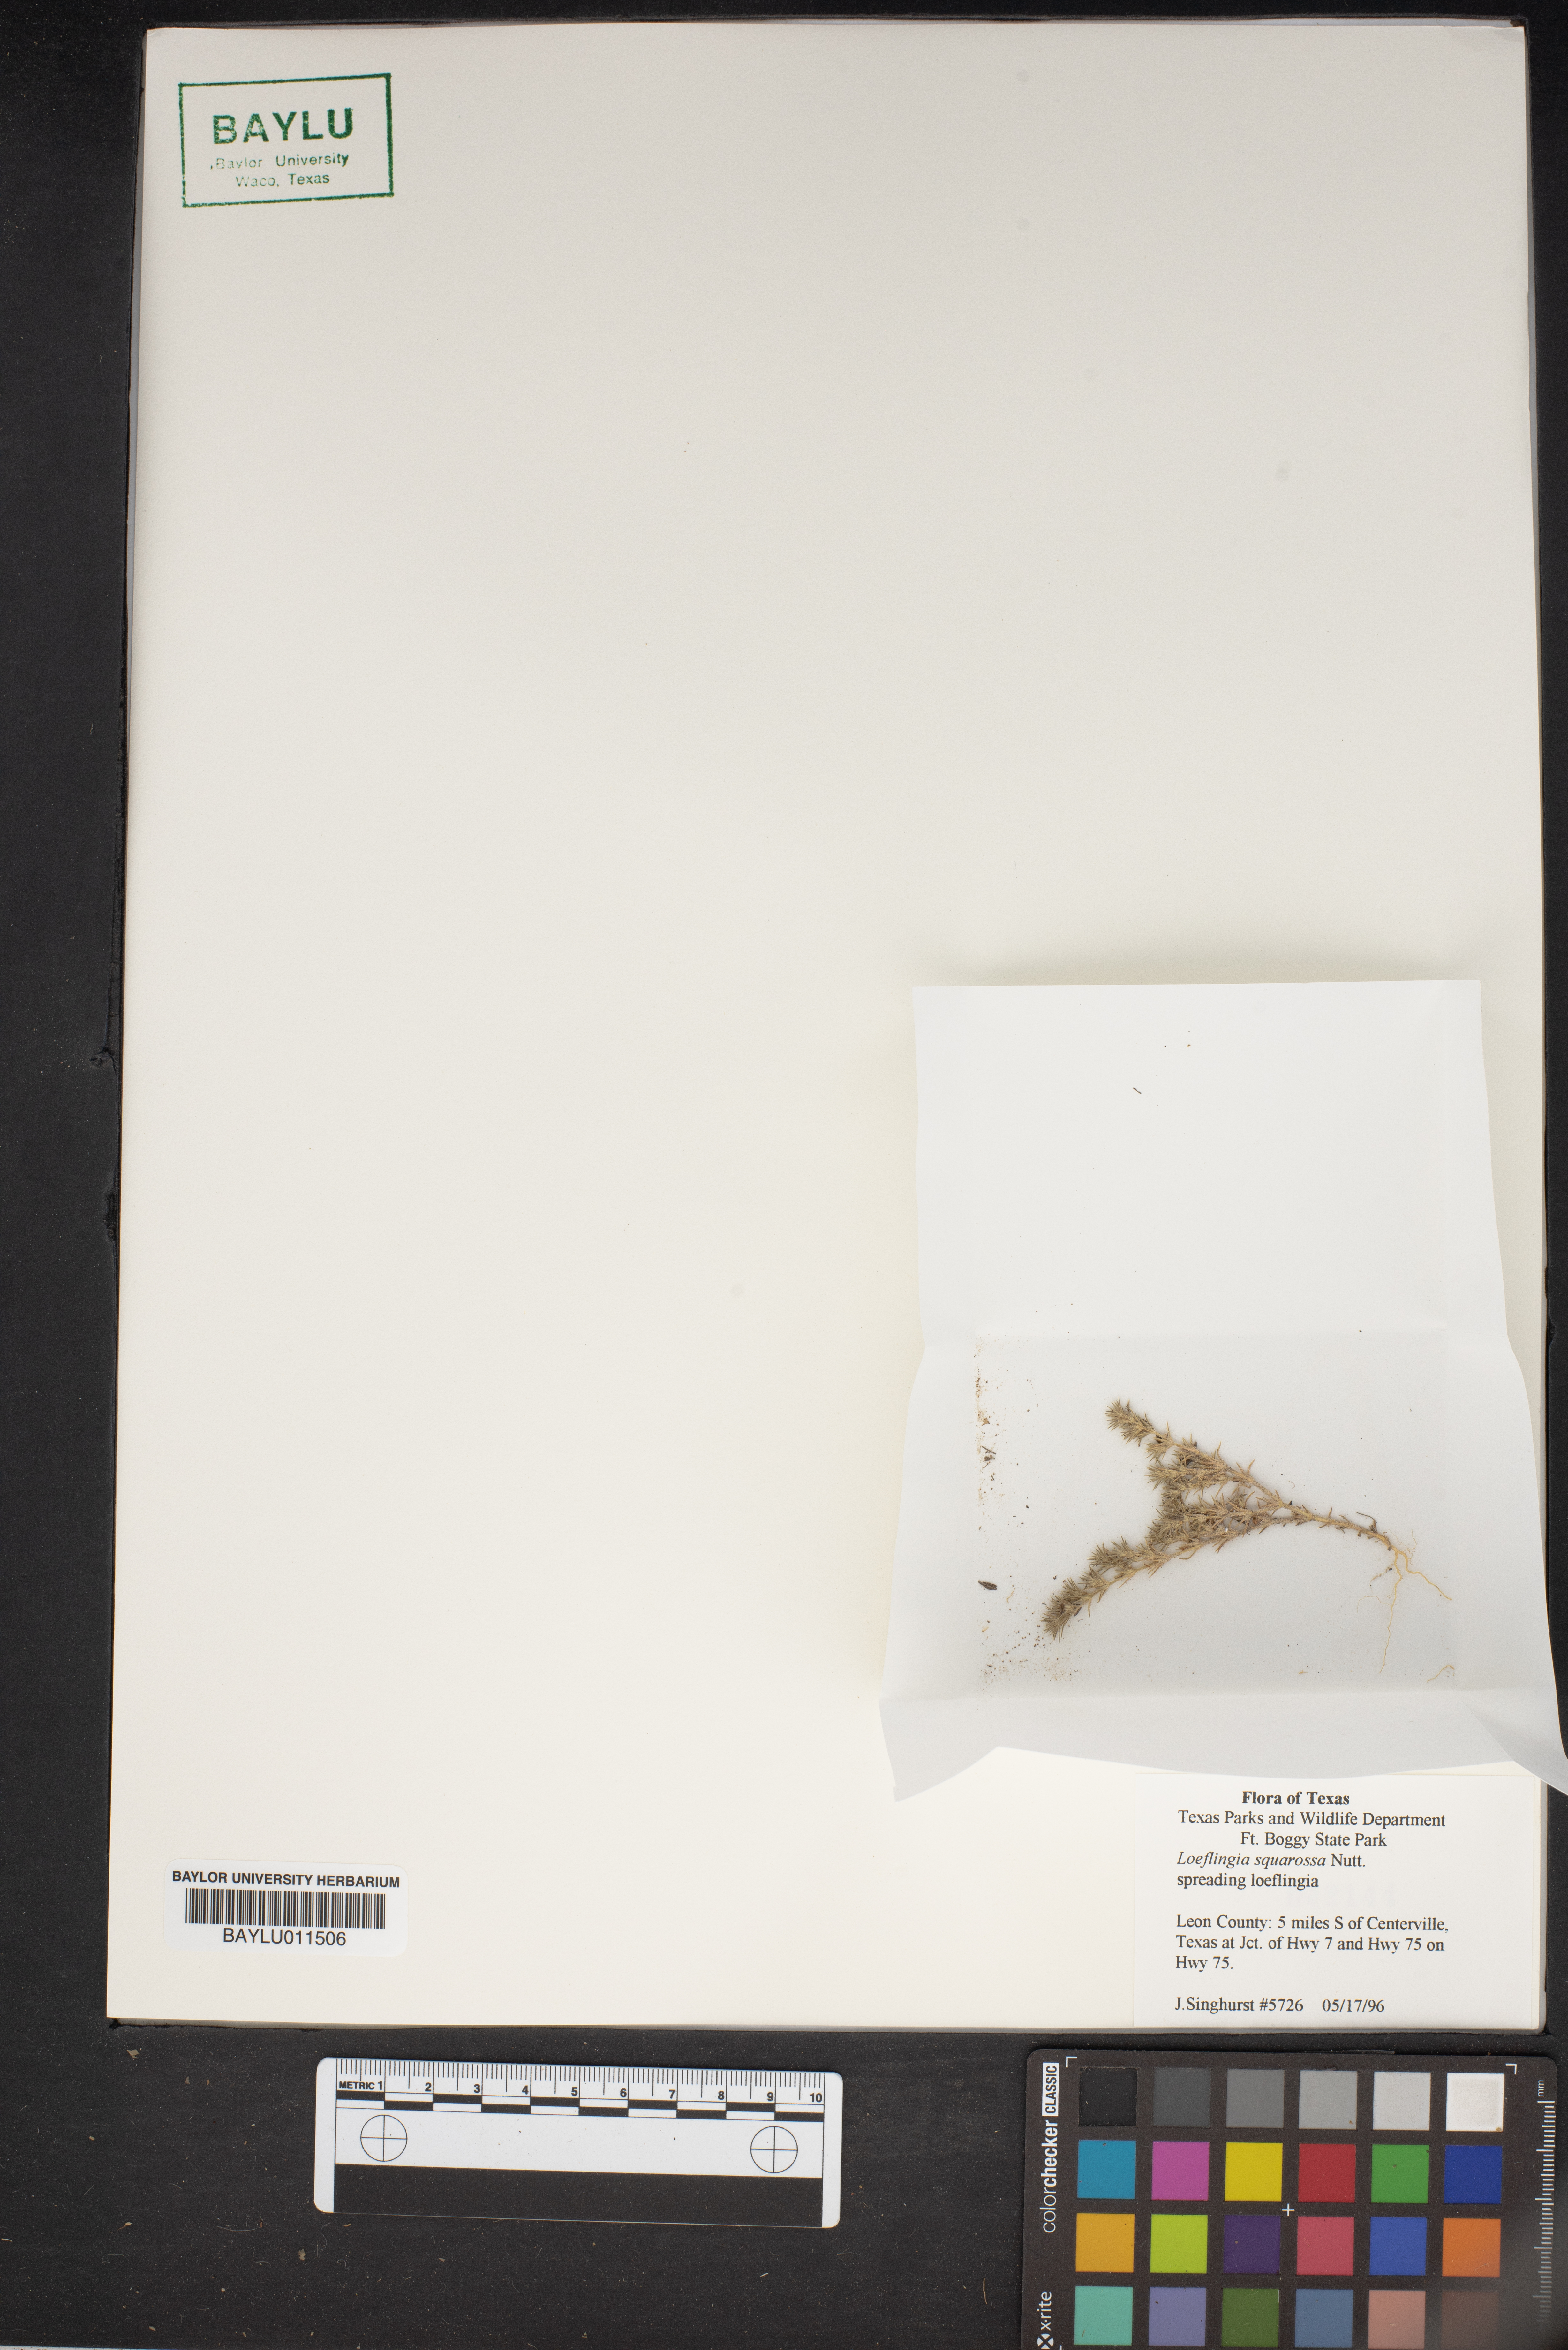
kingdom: Plantae
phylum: Tracheophyta
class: Magnoliopsida
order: Caryophyllales
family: Caryophyllaceae
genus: Loeflingia
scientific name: Loeflingia squarrosa
